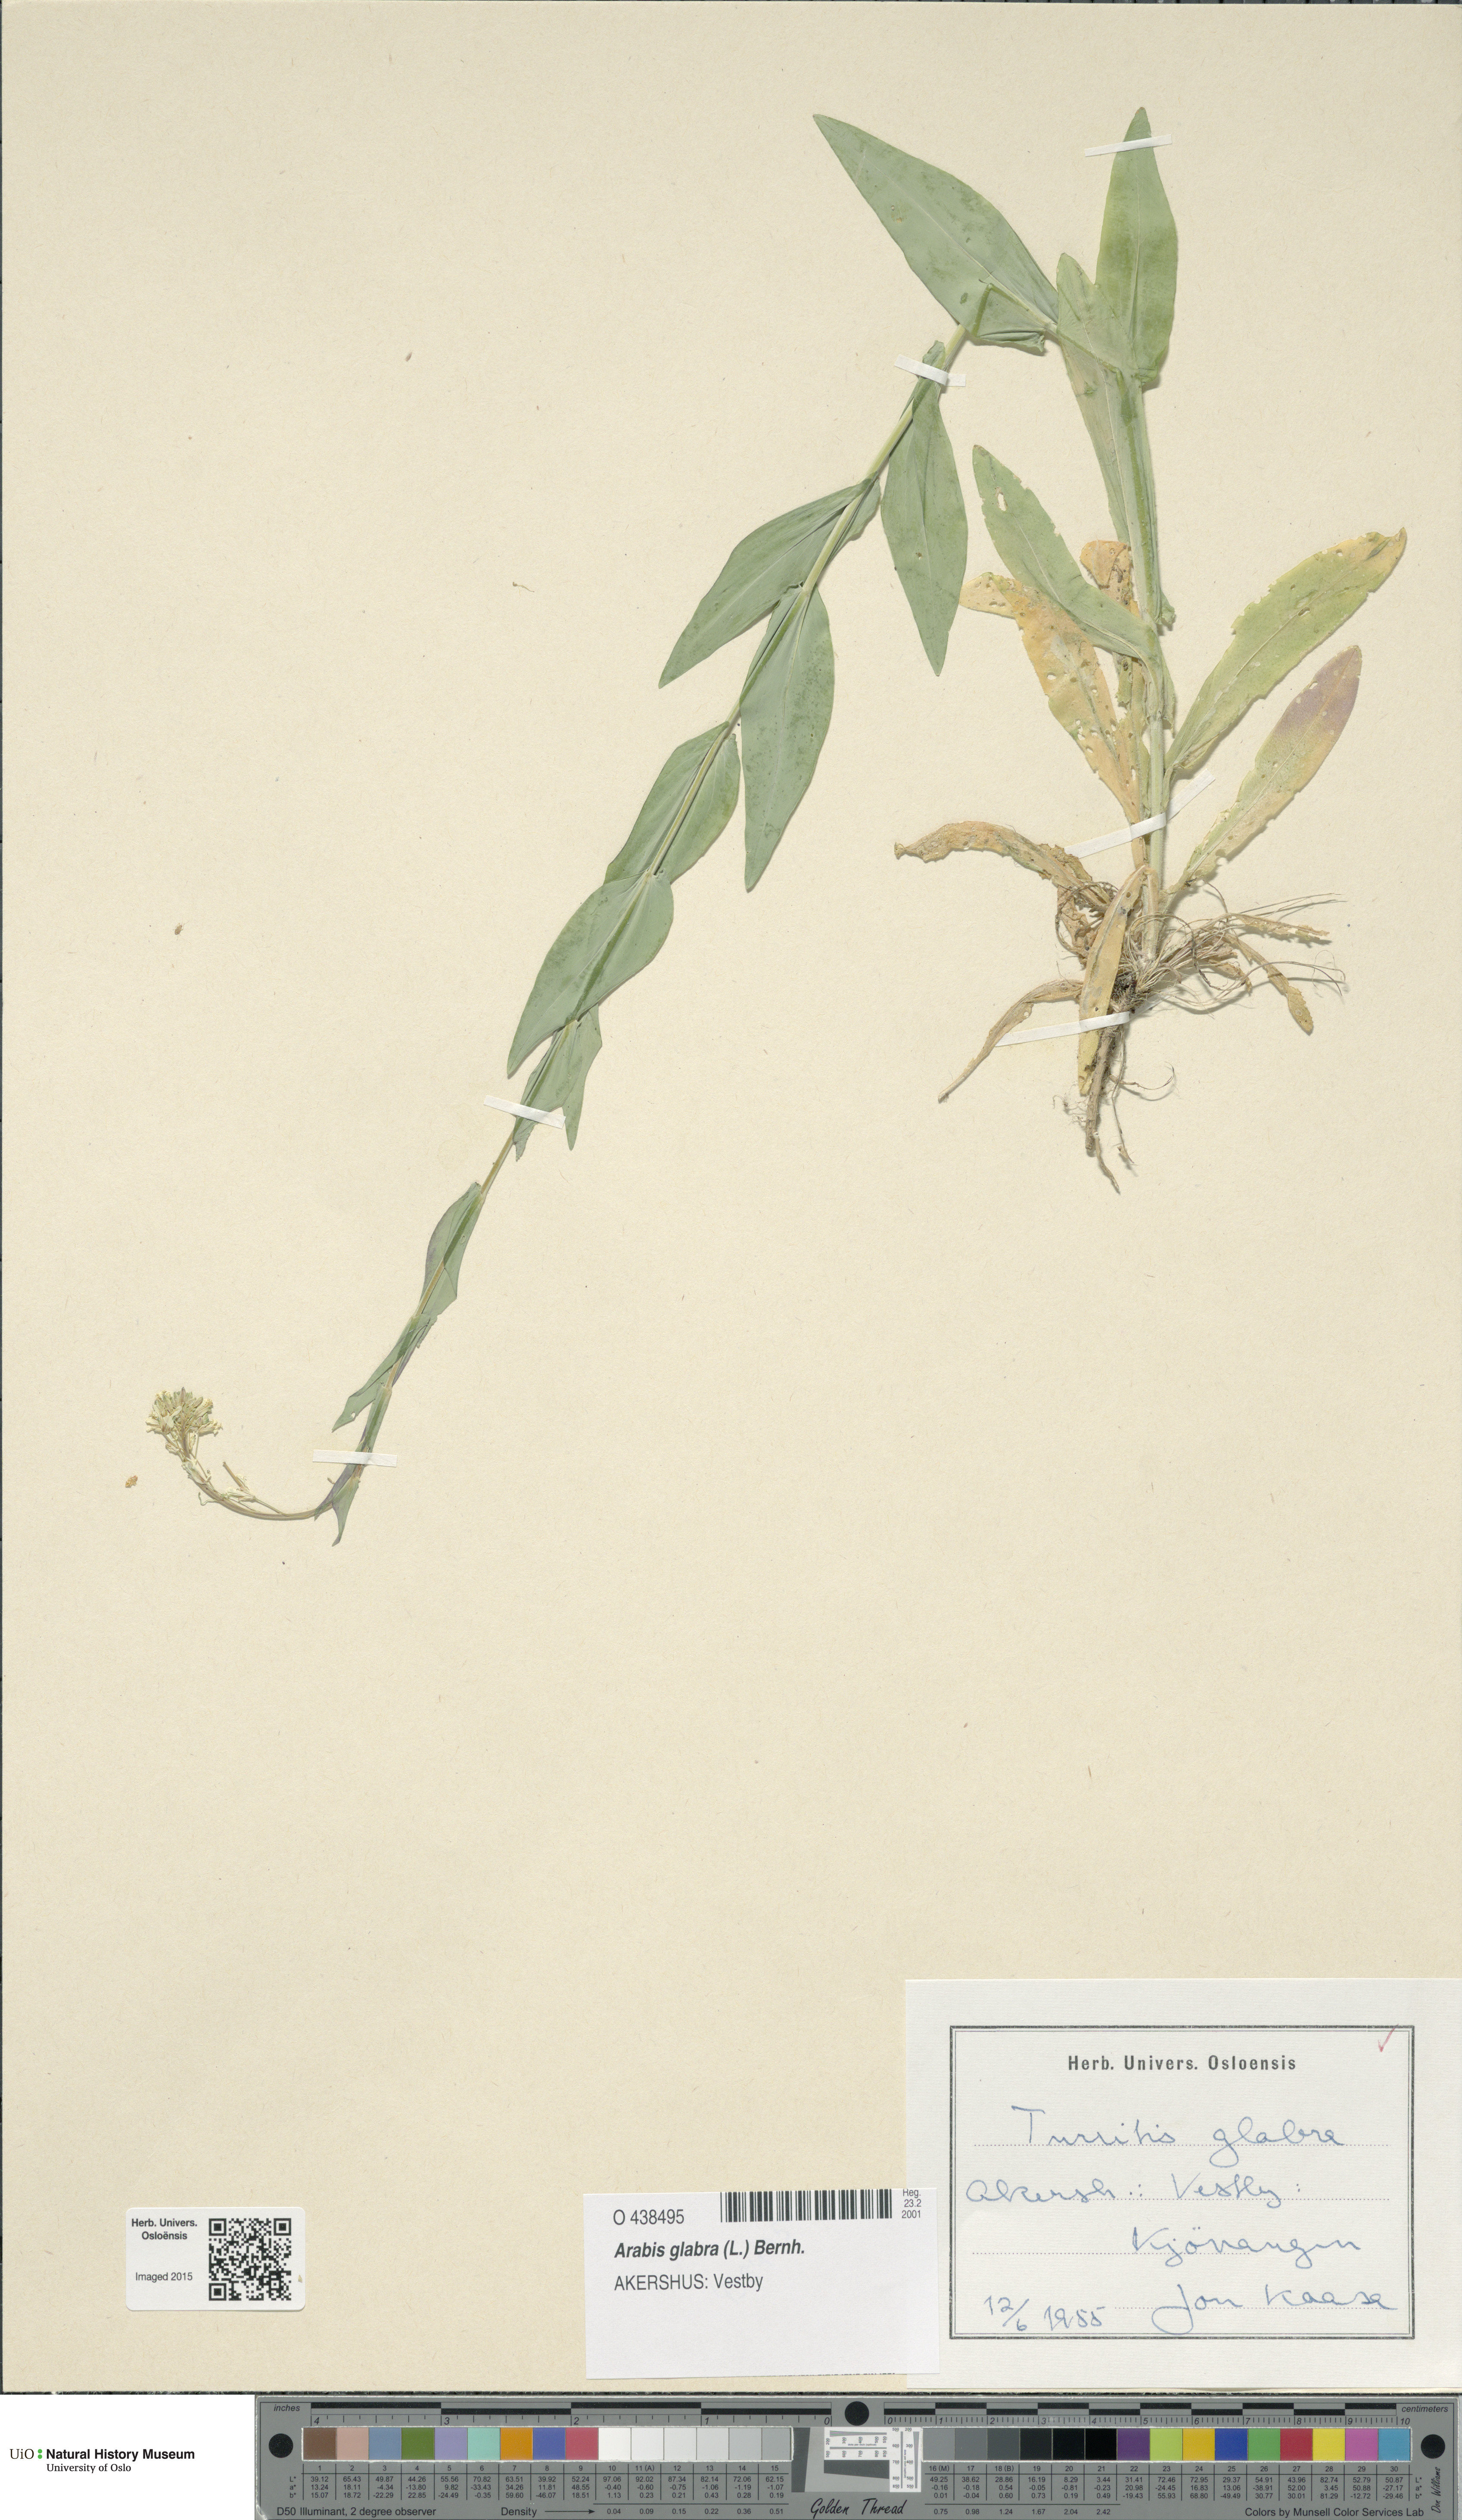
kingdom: Plantae
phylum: Tracheophyta
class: Magnoliopsida
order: Brassicales
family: Brassicaceae
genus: Turritis
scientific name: Turritis glabra
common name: Tower rockcress
